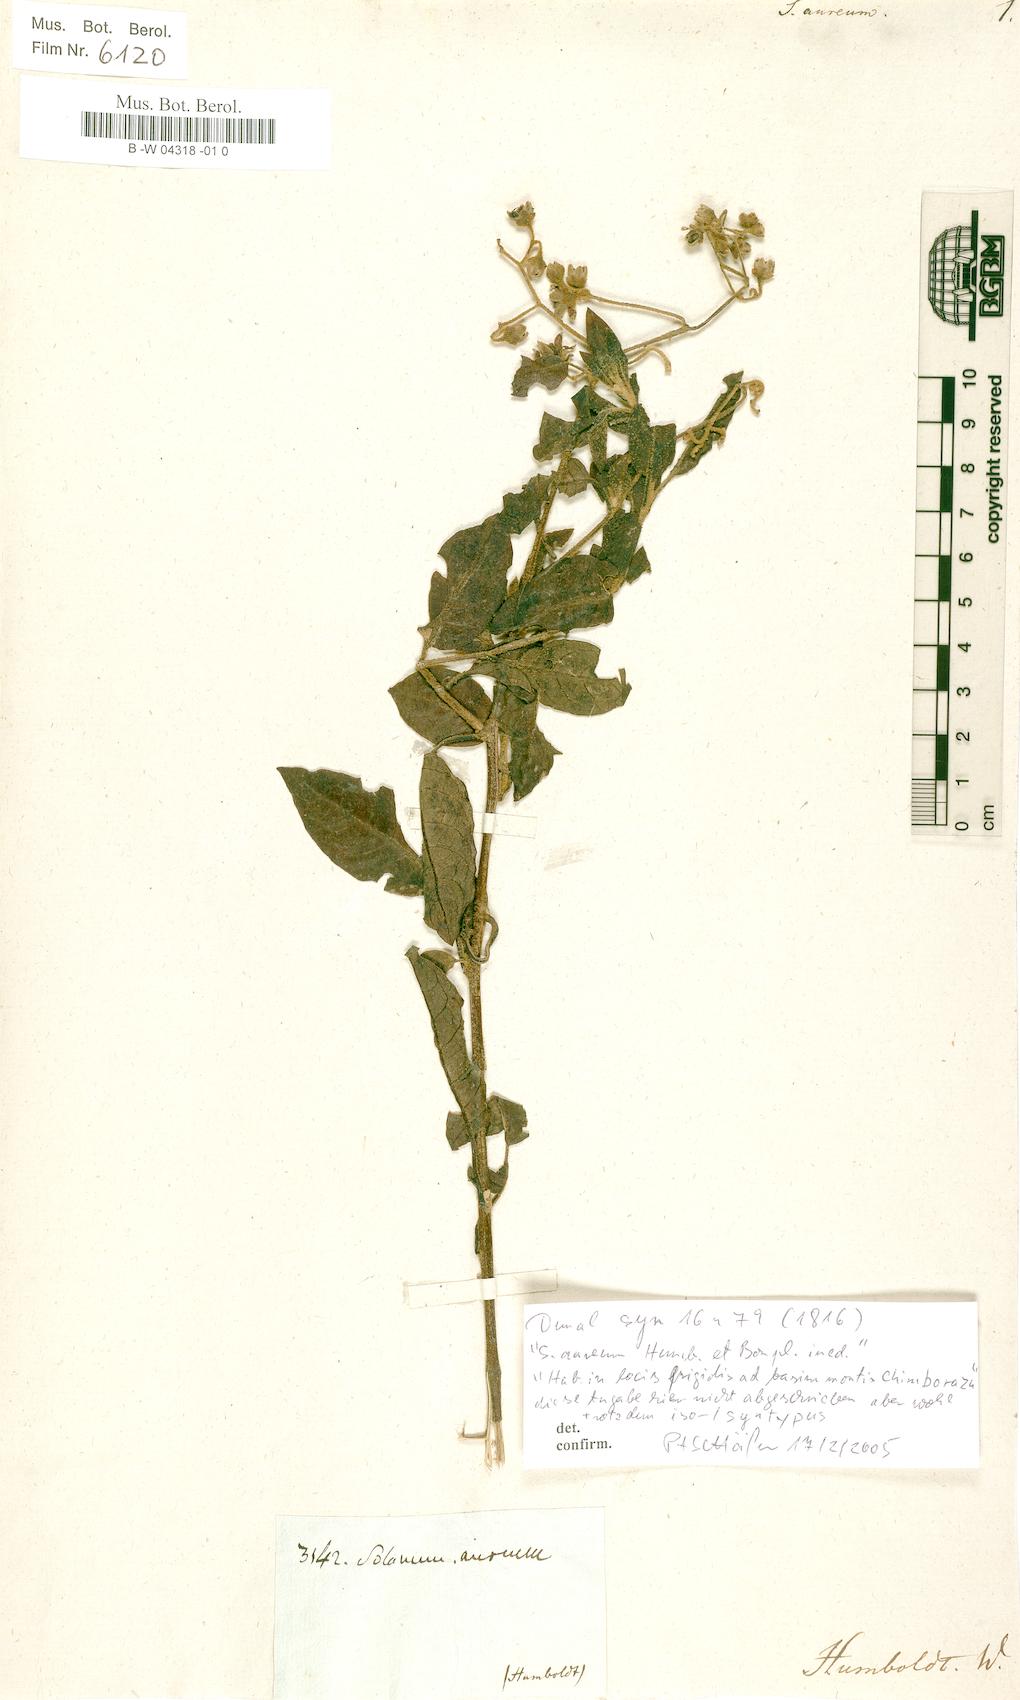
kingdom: Plantae
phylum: Tracheophyta
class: Magnoliopsida
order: Solanales
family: Solanaceae
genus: Solanum
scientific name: Solanum aureum
